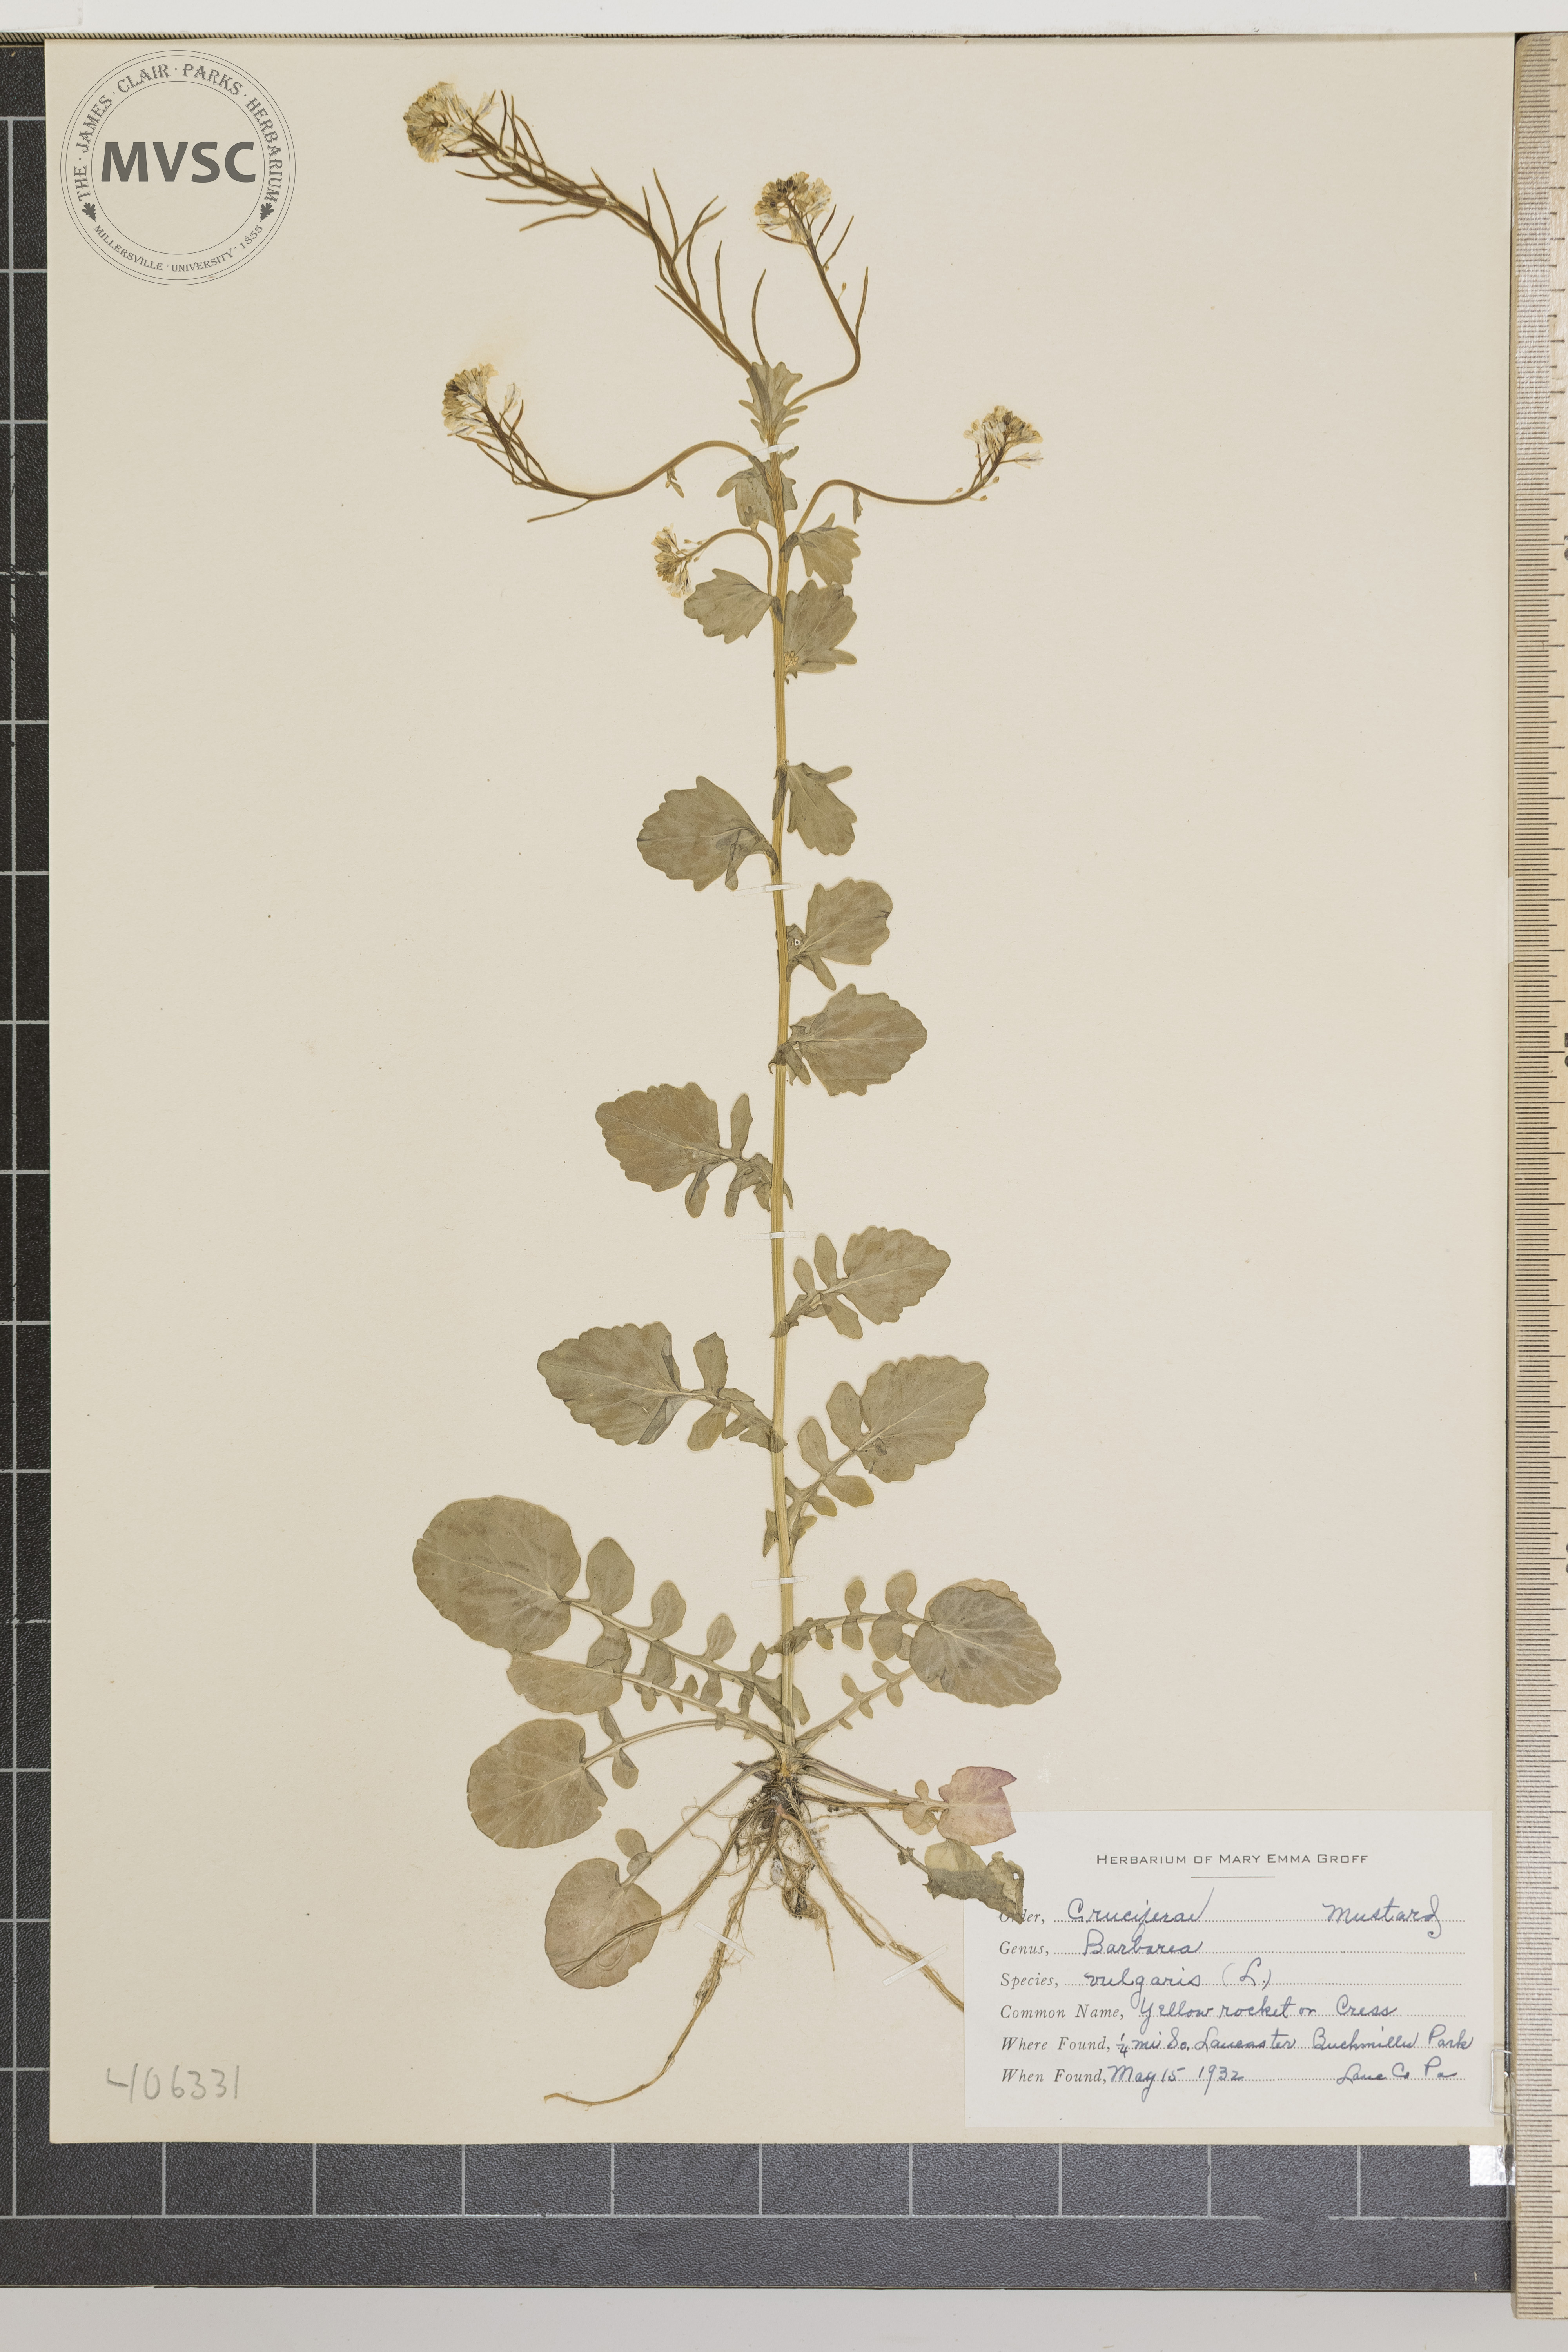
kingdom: Plantae
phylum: Tracheophyta
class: Magnoliopsida
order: Brassicales
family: Brassicaceae
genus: Barbarea
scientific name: Barbarea vulgaris
